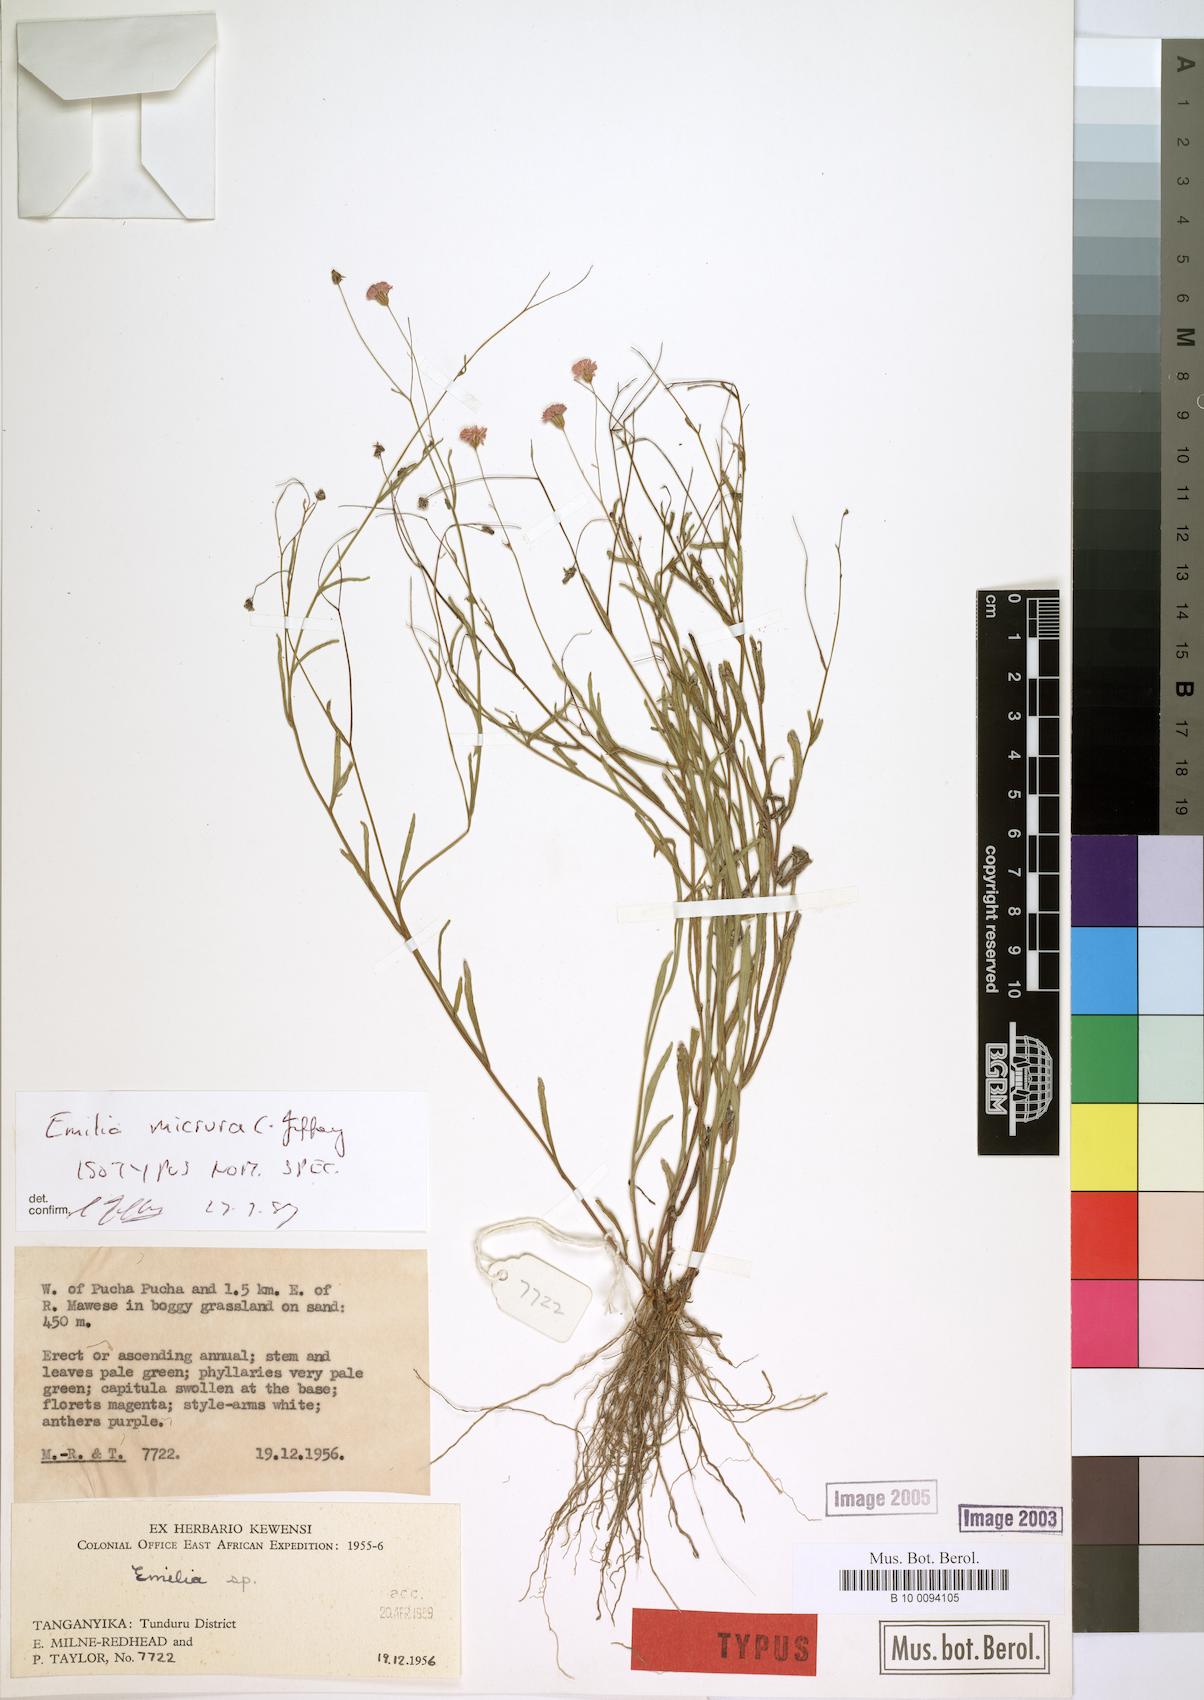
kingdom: Plantae
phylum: Tracheophyta
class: Magnoliopsida
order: Asterales
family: Asteraceae
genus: Emilia
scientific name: Emilia micrura
